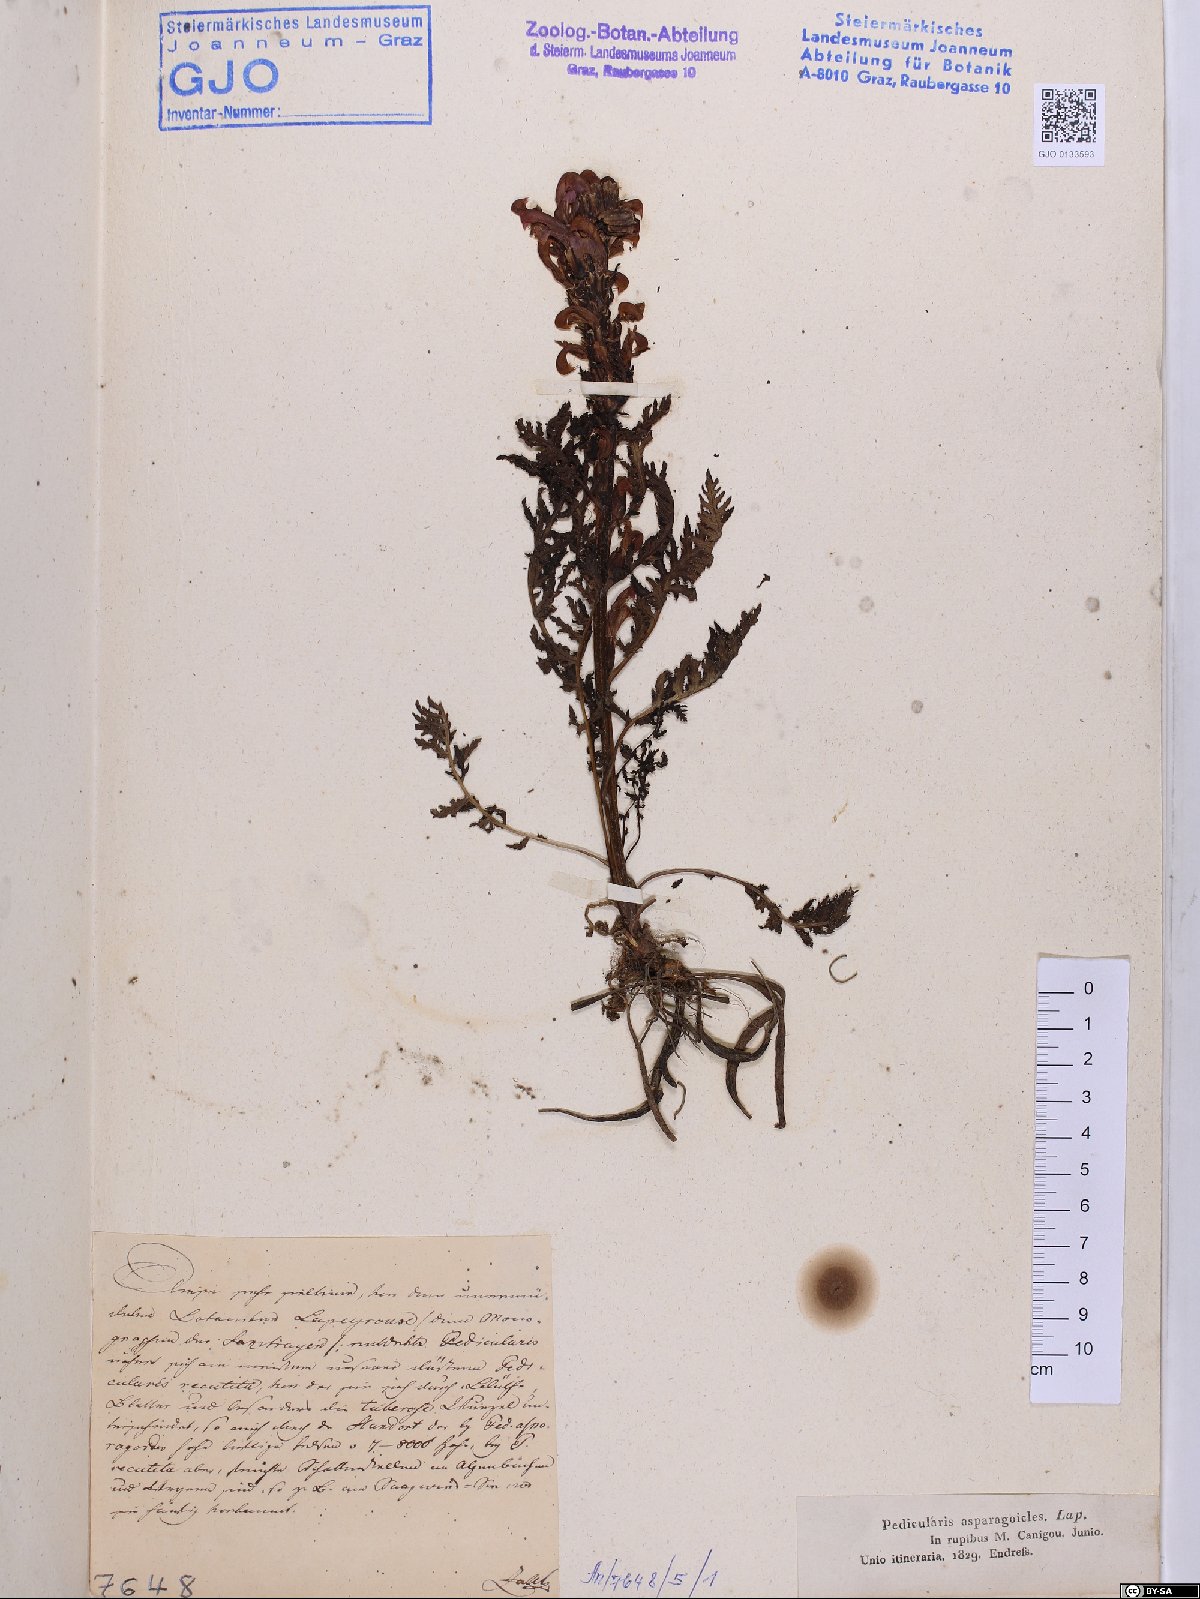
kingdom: Plantae
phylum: Tracheophyta
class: Magnoliopsida
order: Lamiales
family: Orobanchaceae
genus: Pedicularis
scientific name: Pedicularis comosa
